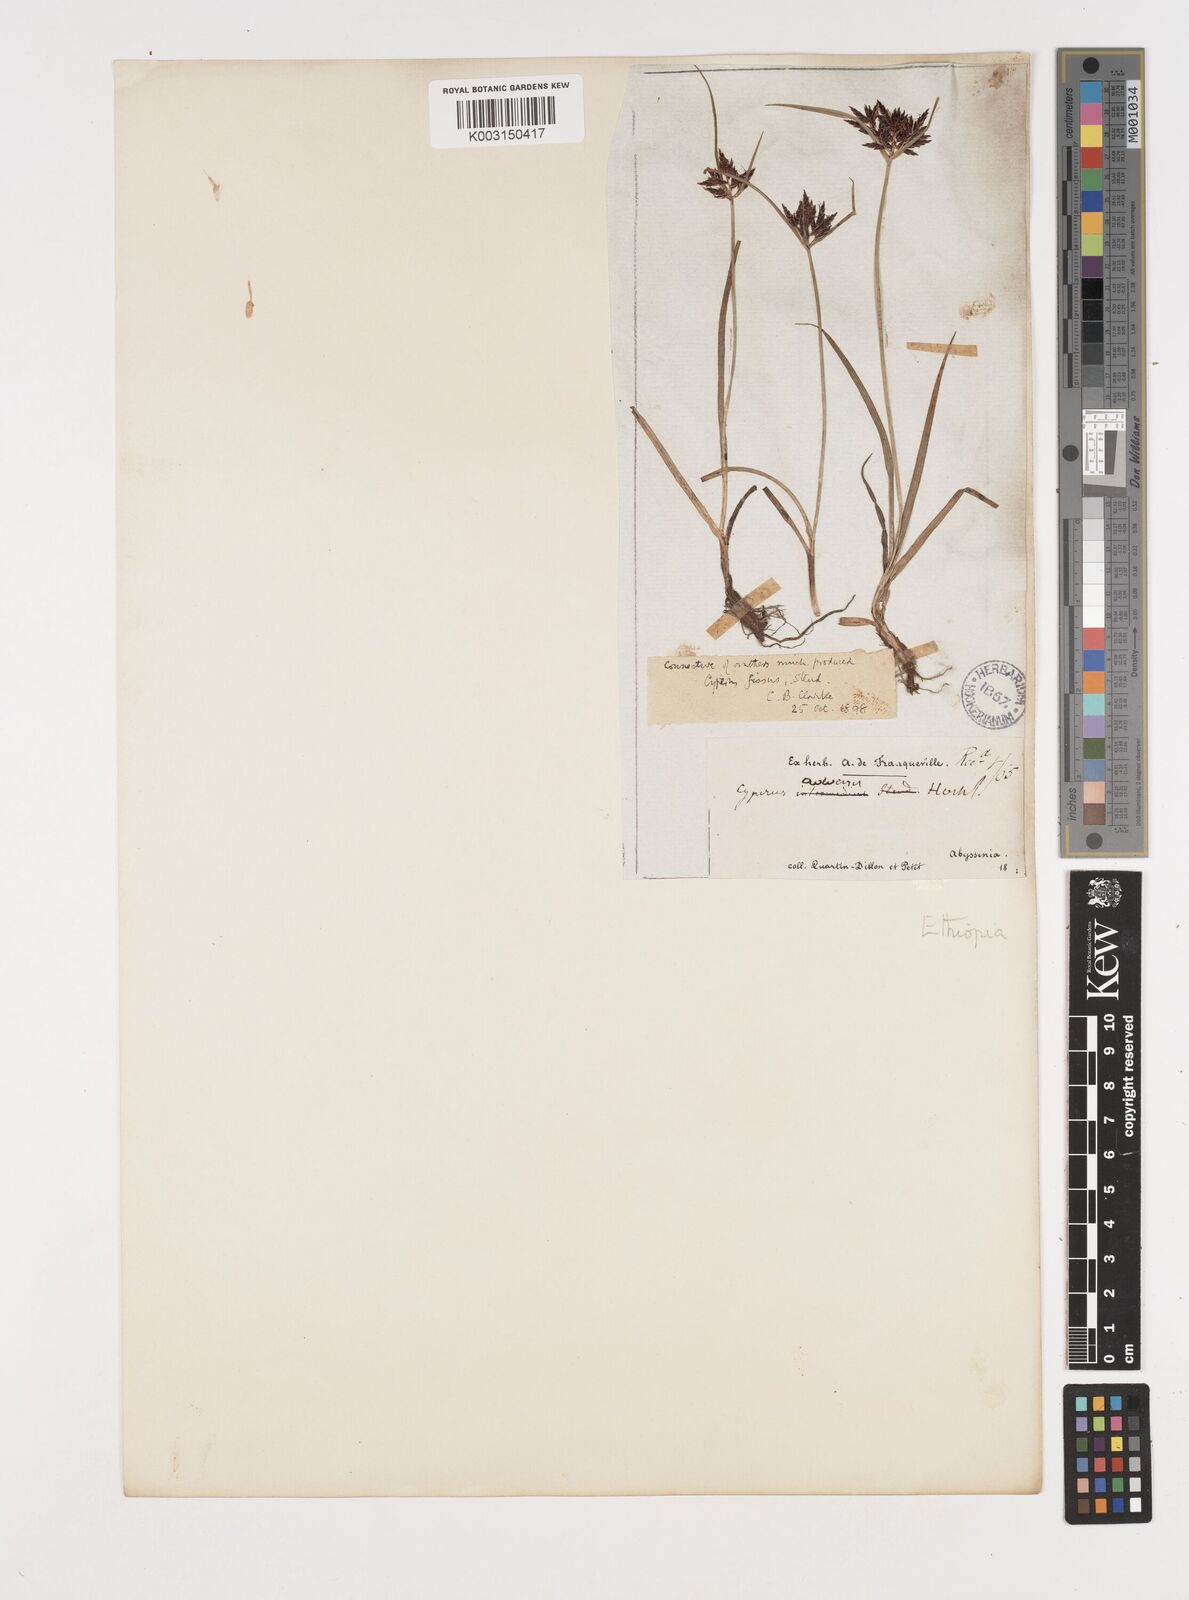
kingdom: Plantae
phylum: Tracheophyta
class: Liliopsida
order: Poales
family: Cyperaceae
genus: Cyperus
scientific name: Cyperus fissus
